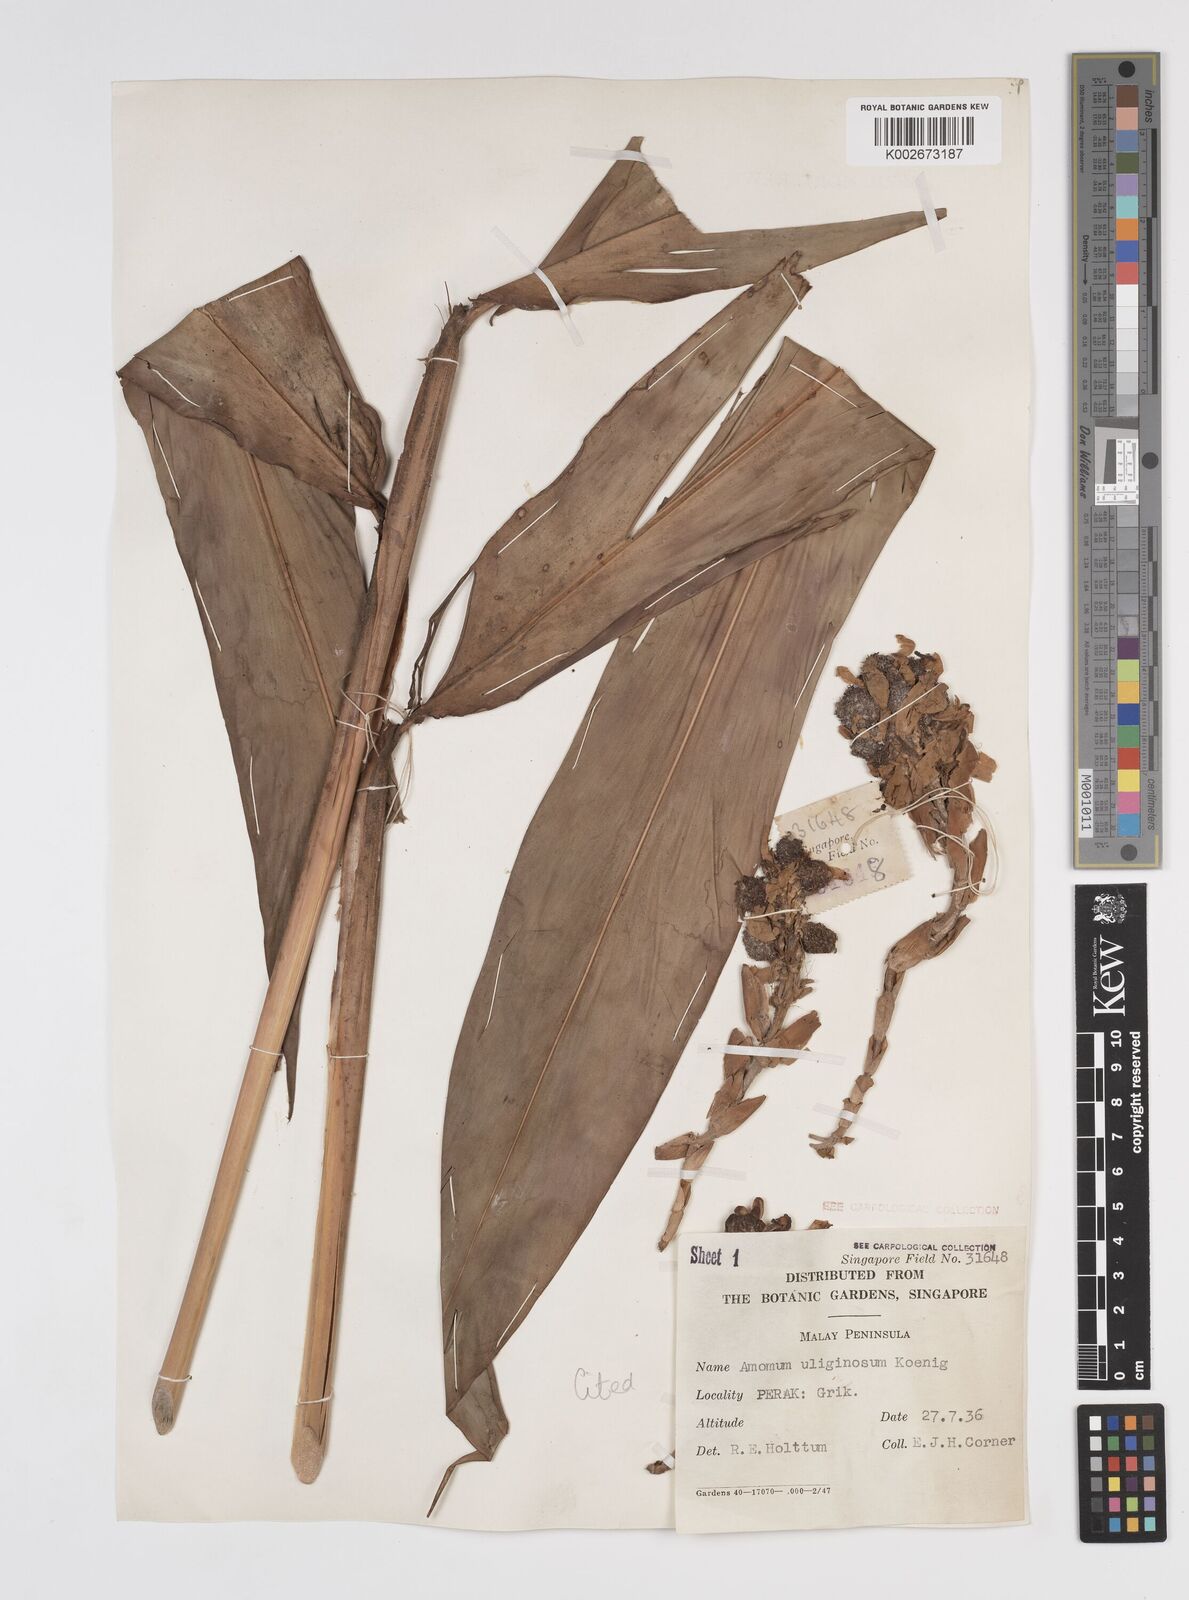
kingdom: Plantae
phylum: Tracheophyta
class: Liliopsida
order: Zingiberales
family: Zingiberaceae
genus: Wurfbainia
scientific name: Wurfbainia uliginosa
